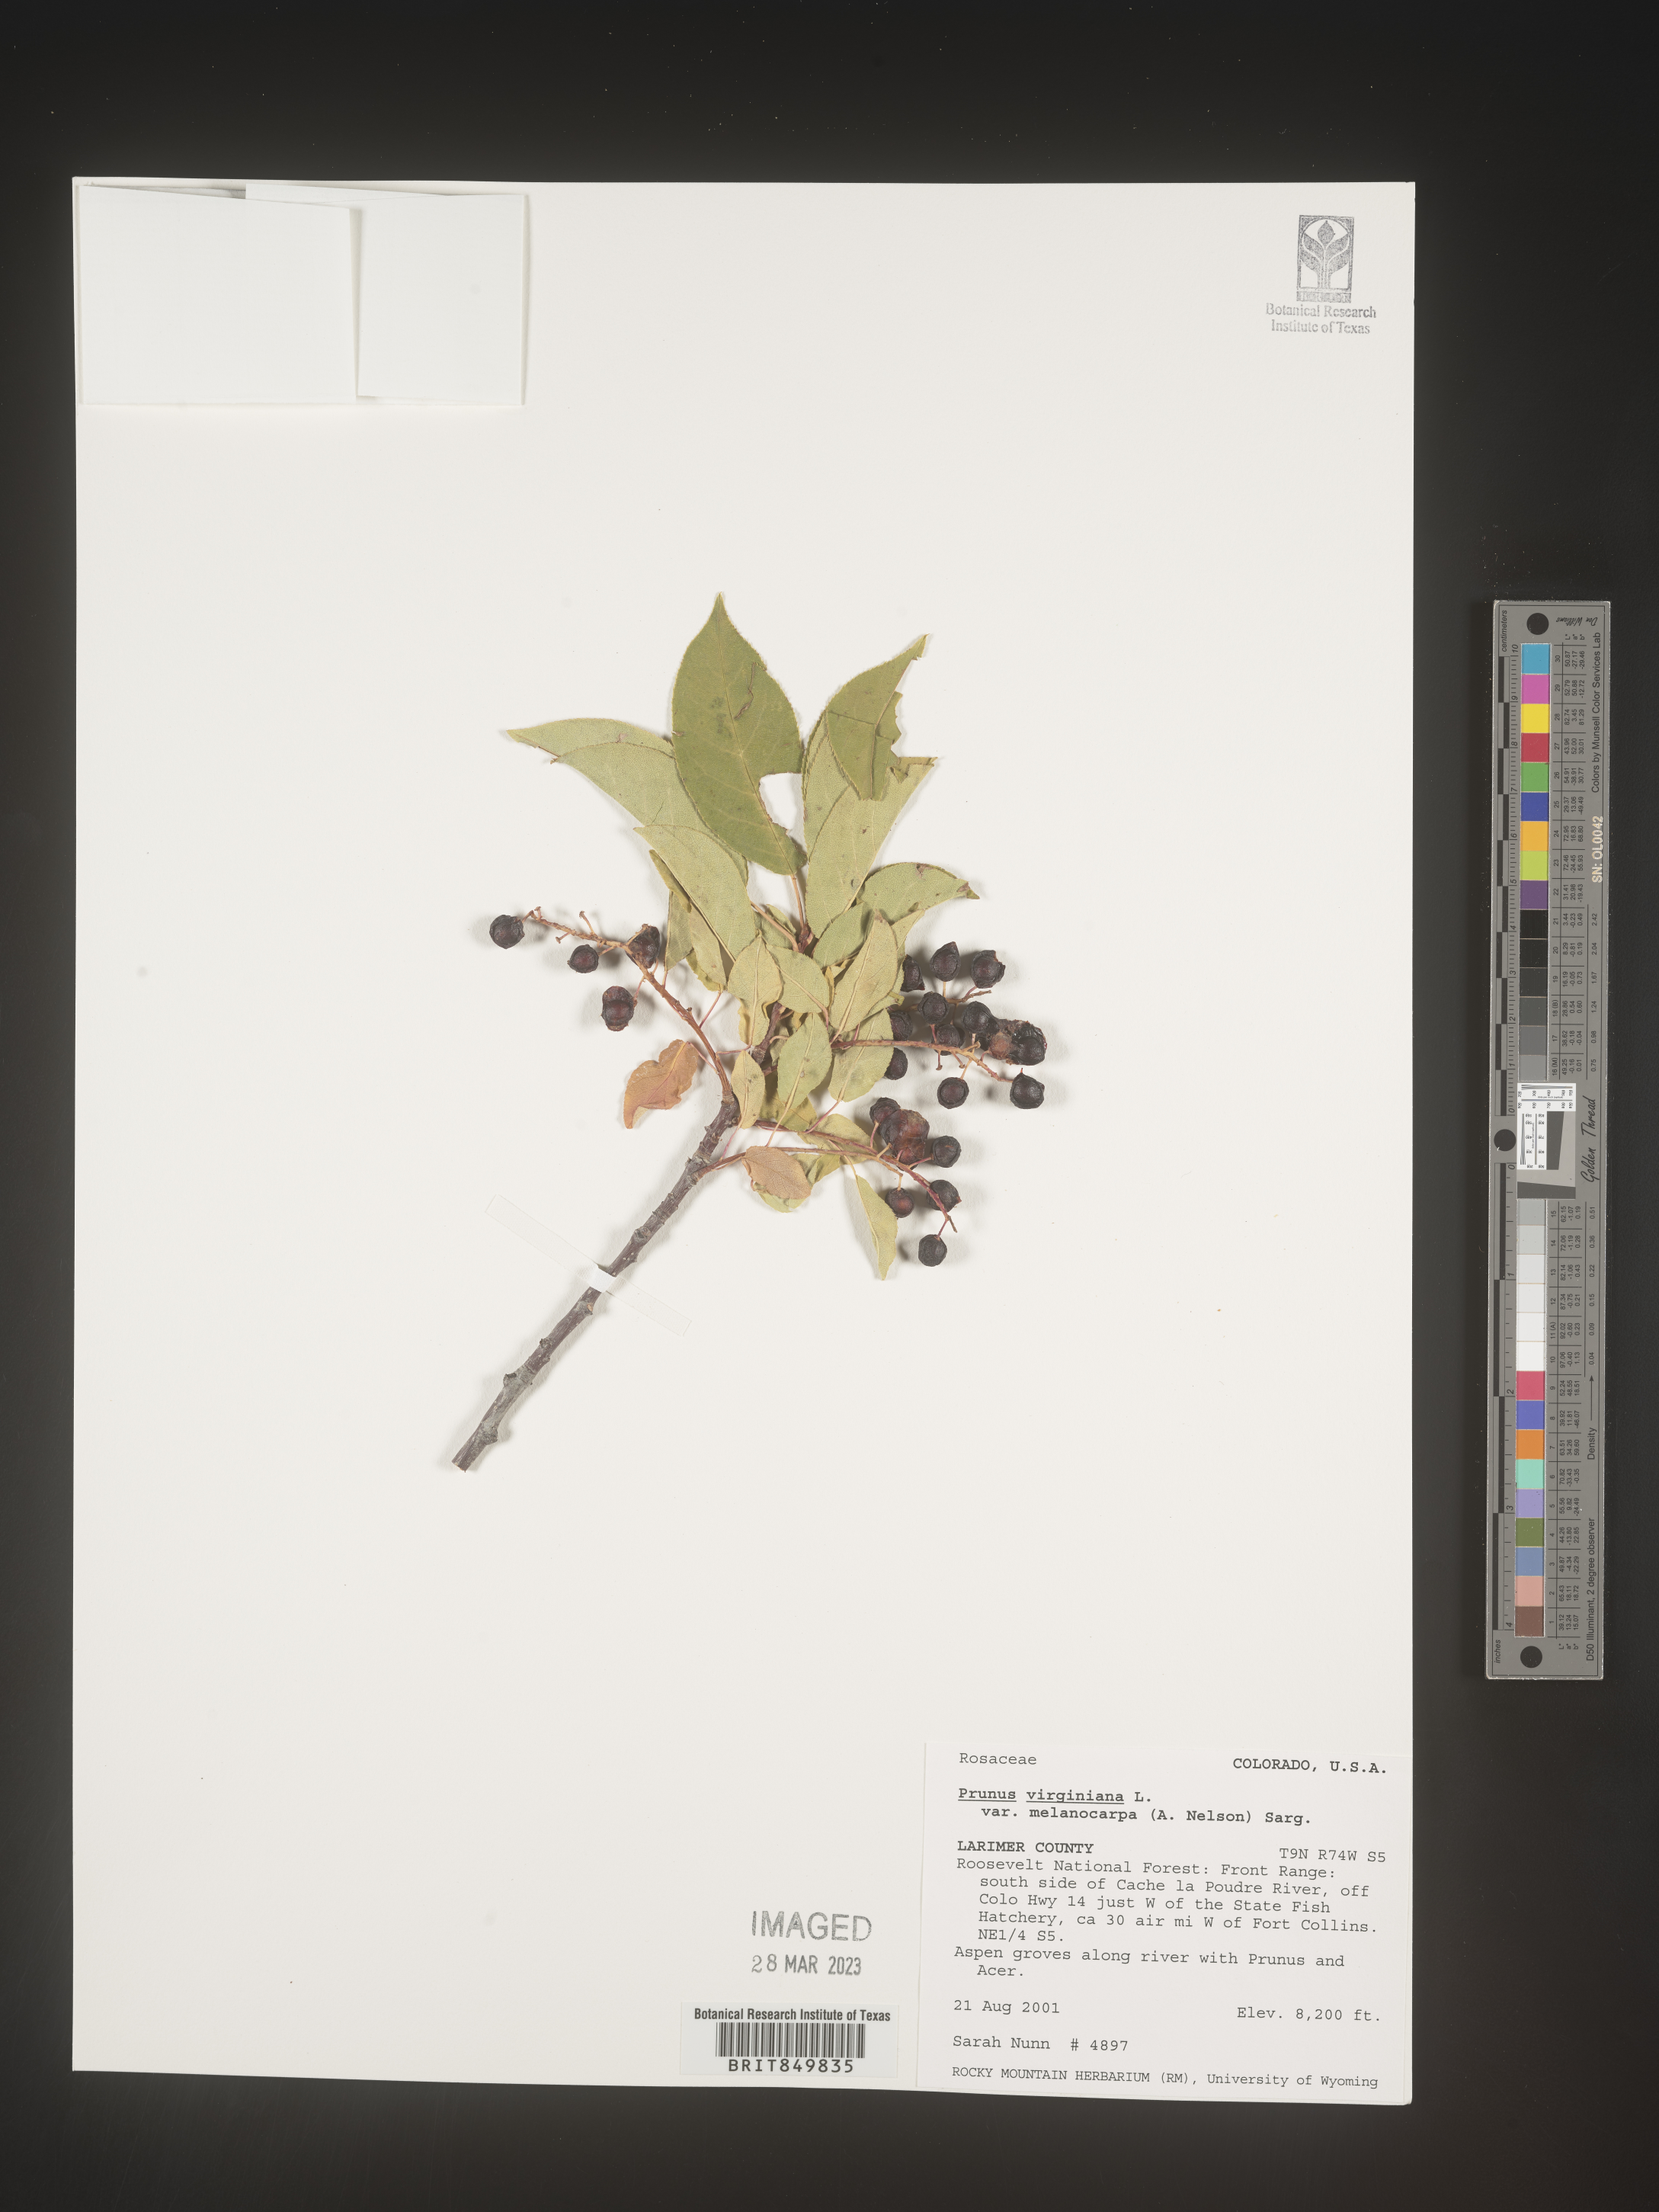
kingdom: Plantae
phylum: Tracheophyta
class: Magnoliopsida
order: Rosales
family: Rosaceae
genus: Prunus
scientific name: Prunus virginiana
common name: Chokecherry
